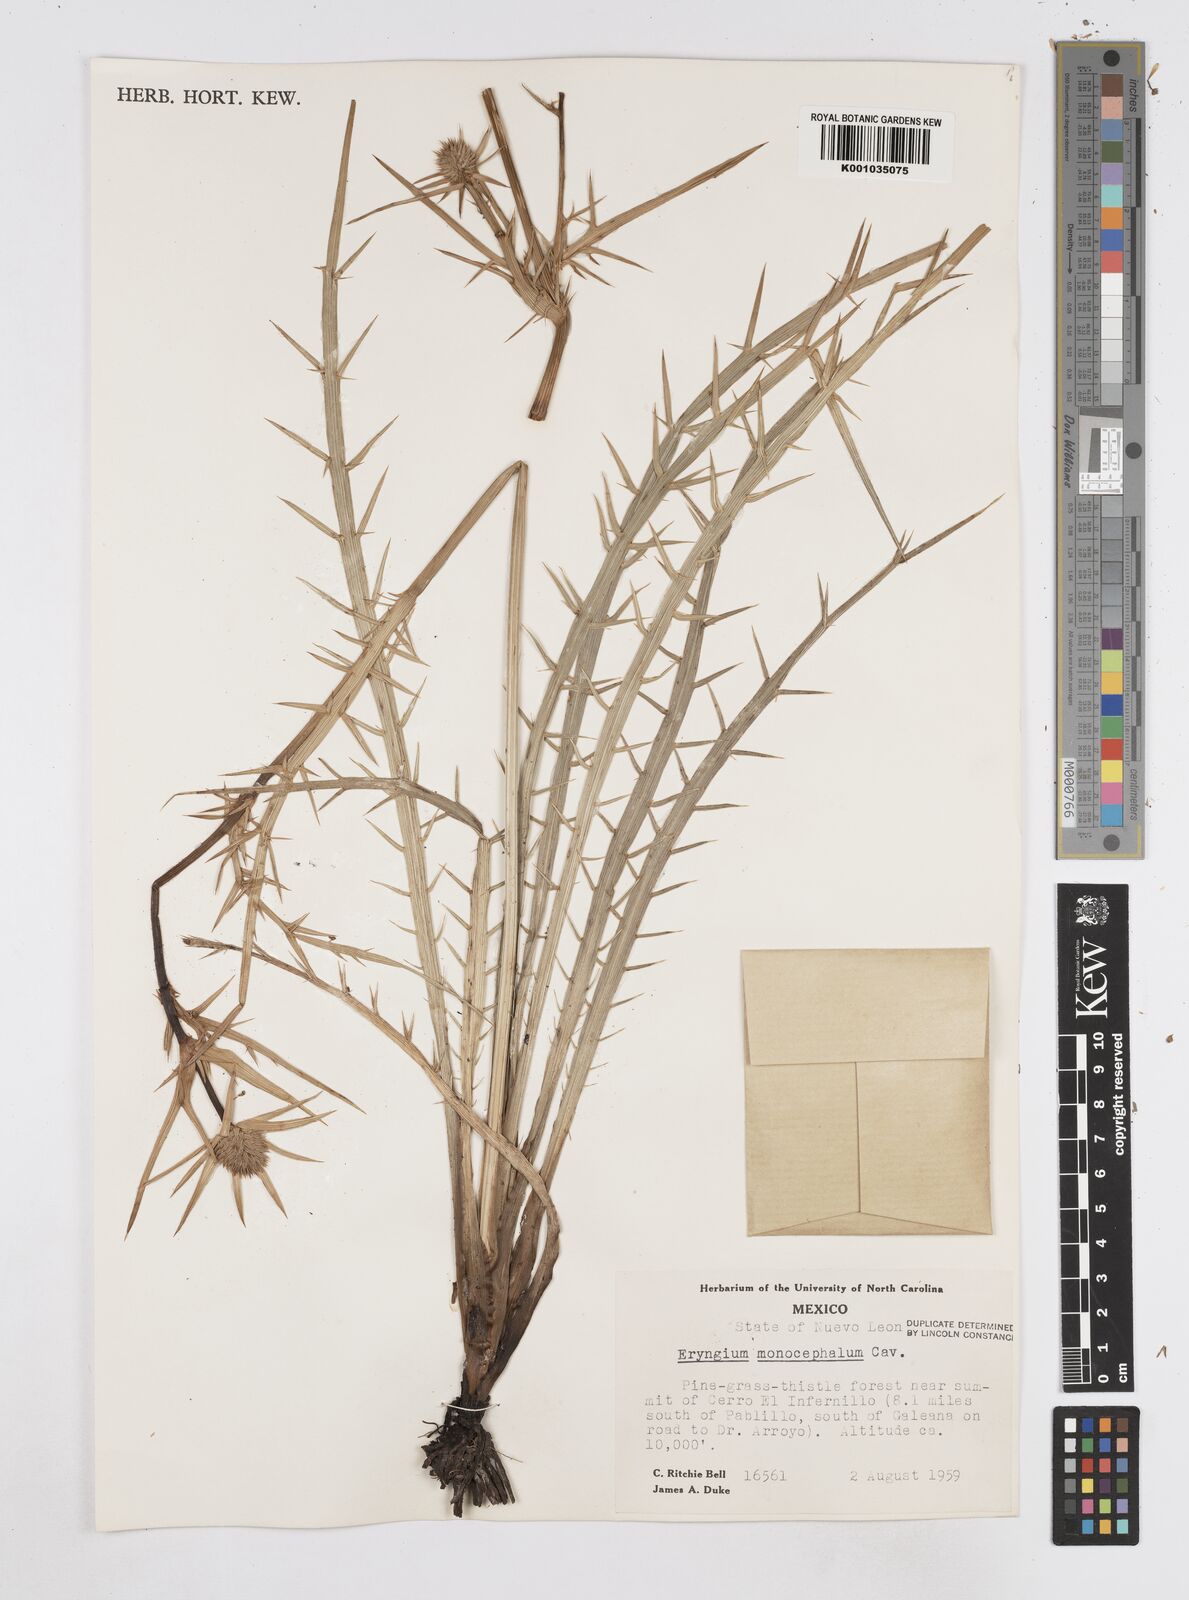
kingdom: Plantae
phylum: Tracheophyta
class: Magnoliopsida
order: Apiales
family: Apiaceae
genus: Eryngium
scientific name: Eryngium monocephalum
